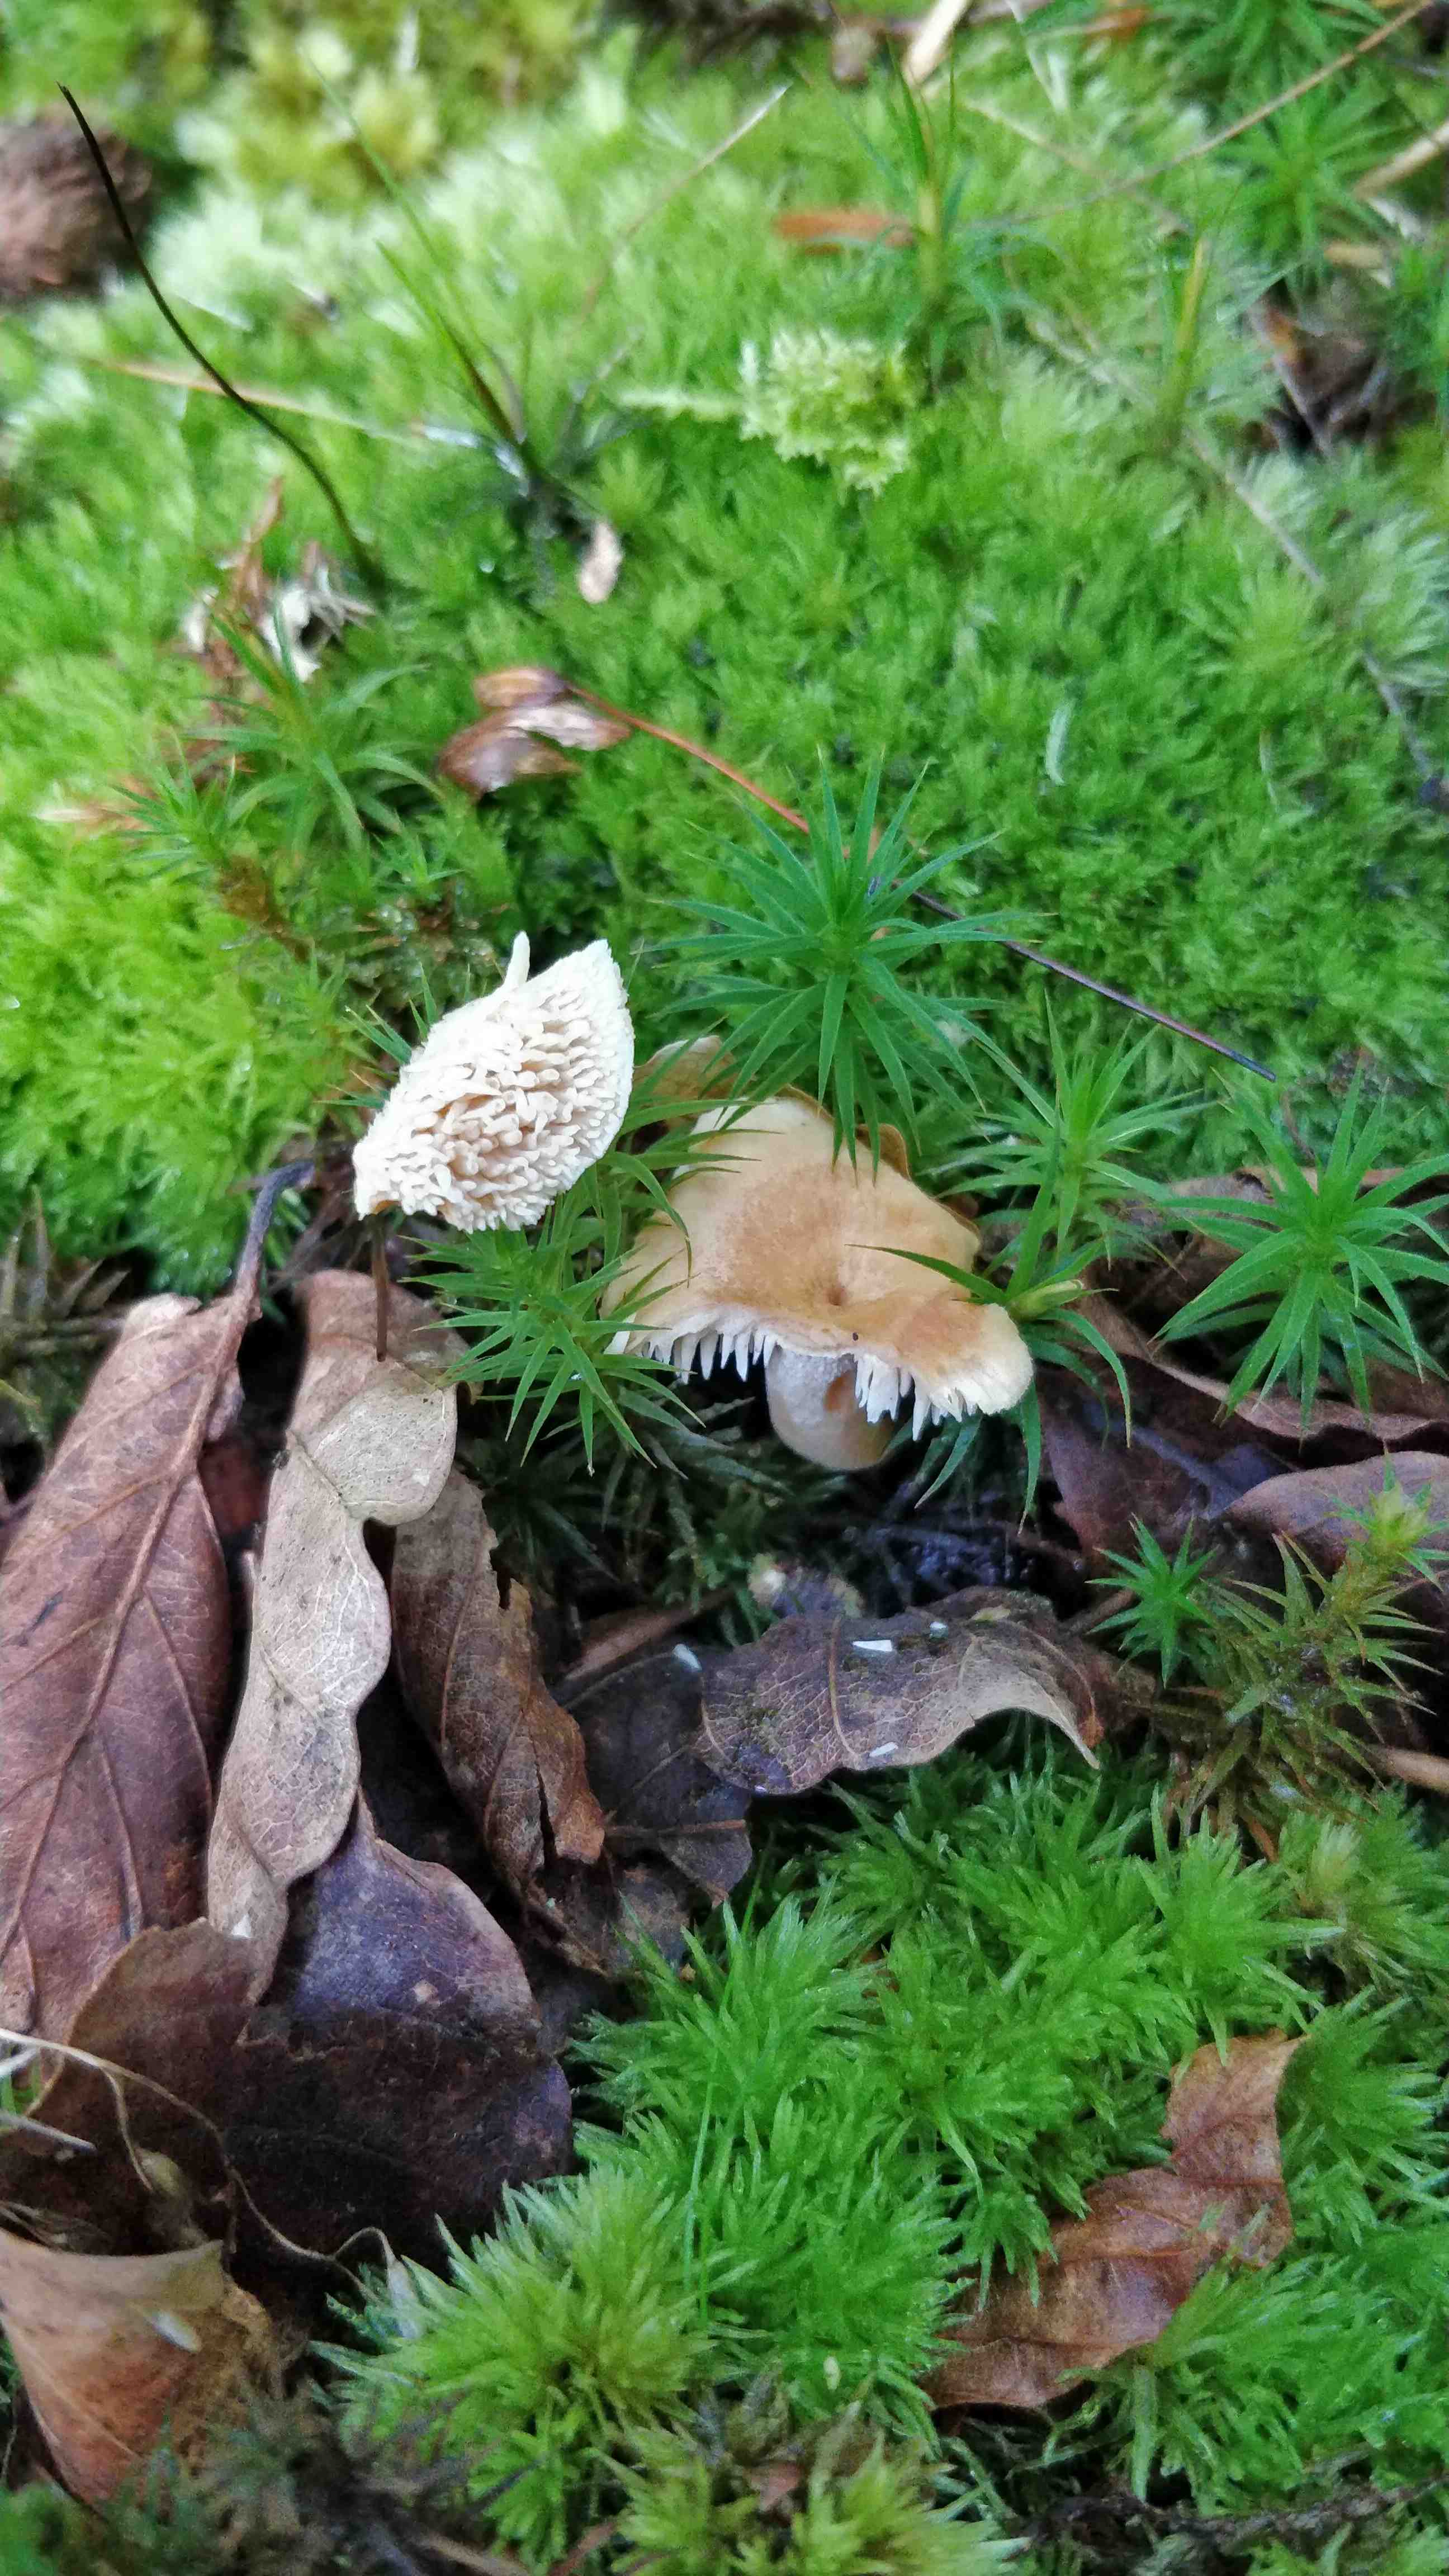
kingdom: Fungi
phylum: Basidiomycota
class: Agaricomycetes
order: Cantharellales
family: Hydnaceae
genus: Hydnum
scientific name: Hydnum
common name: pigsvamp
